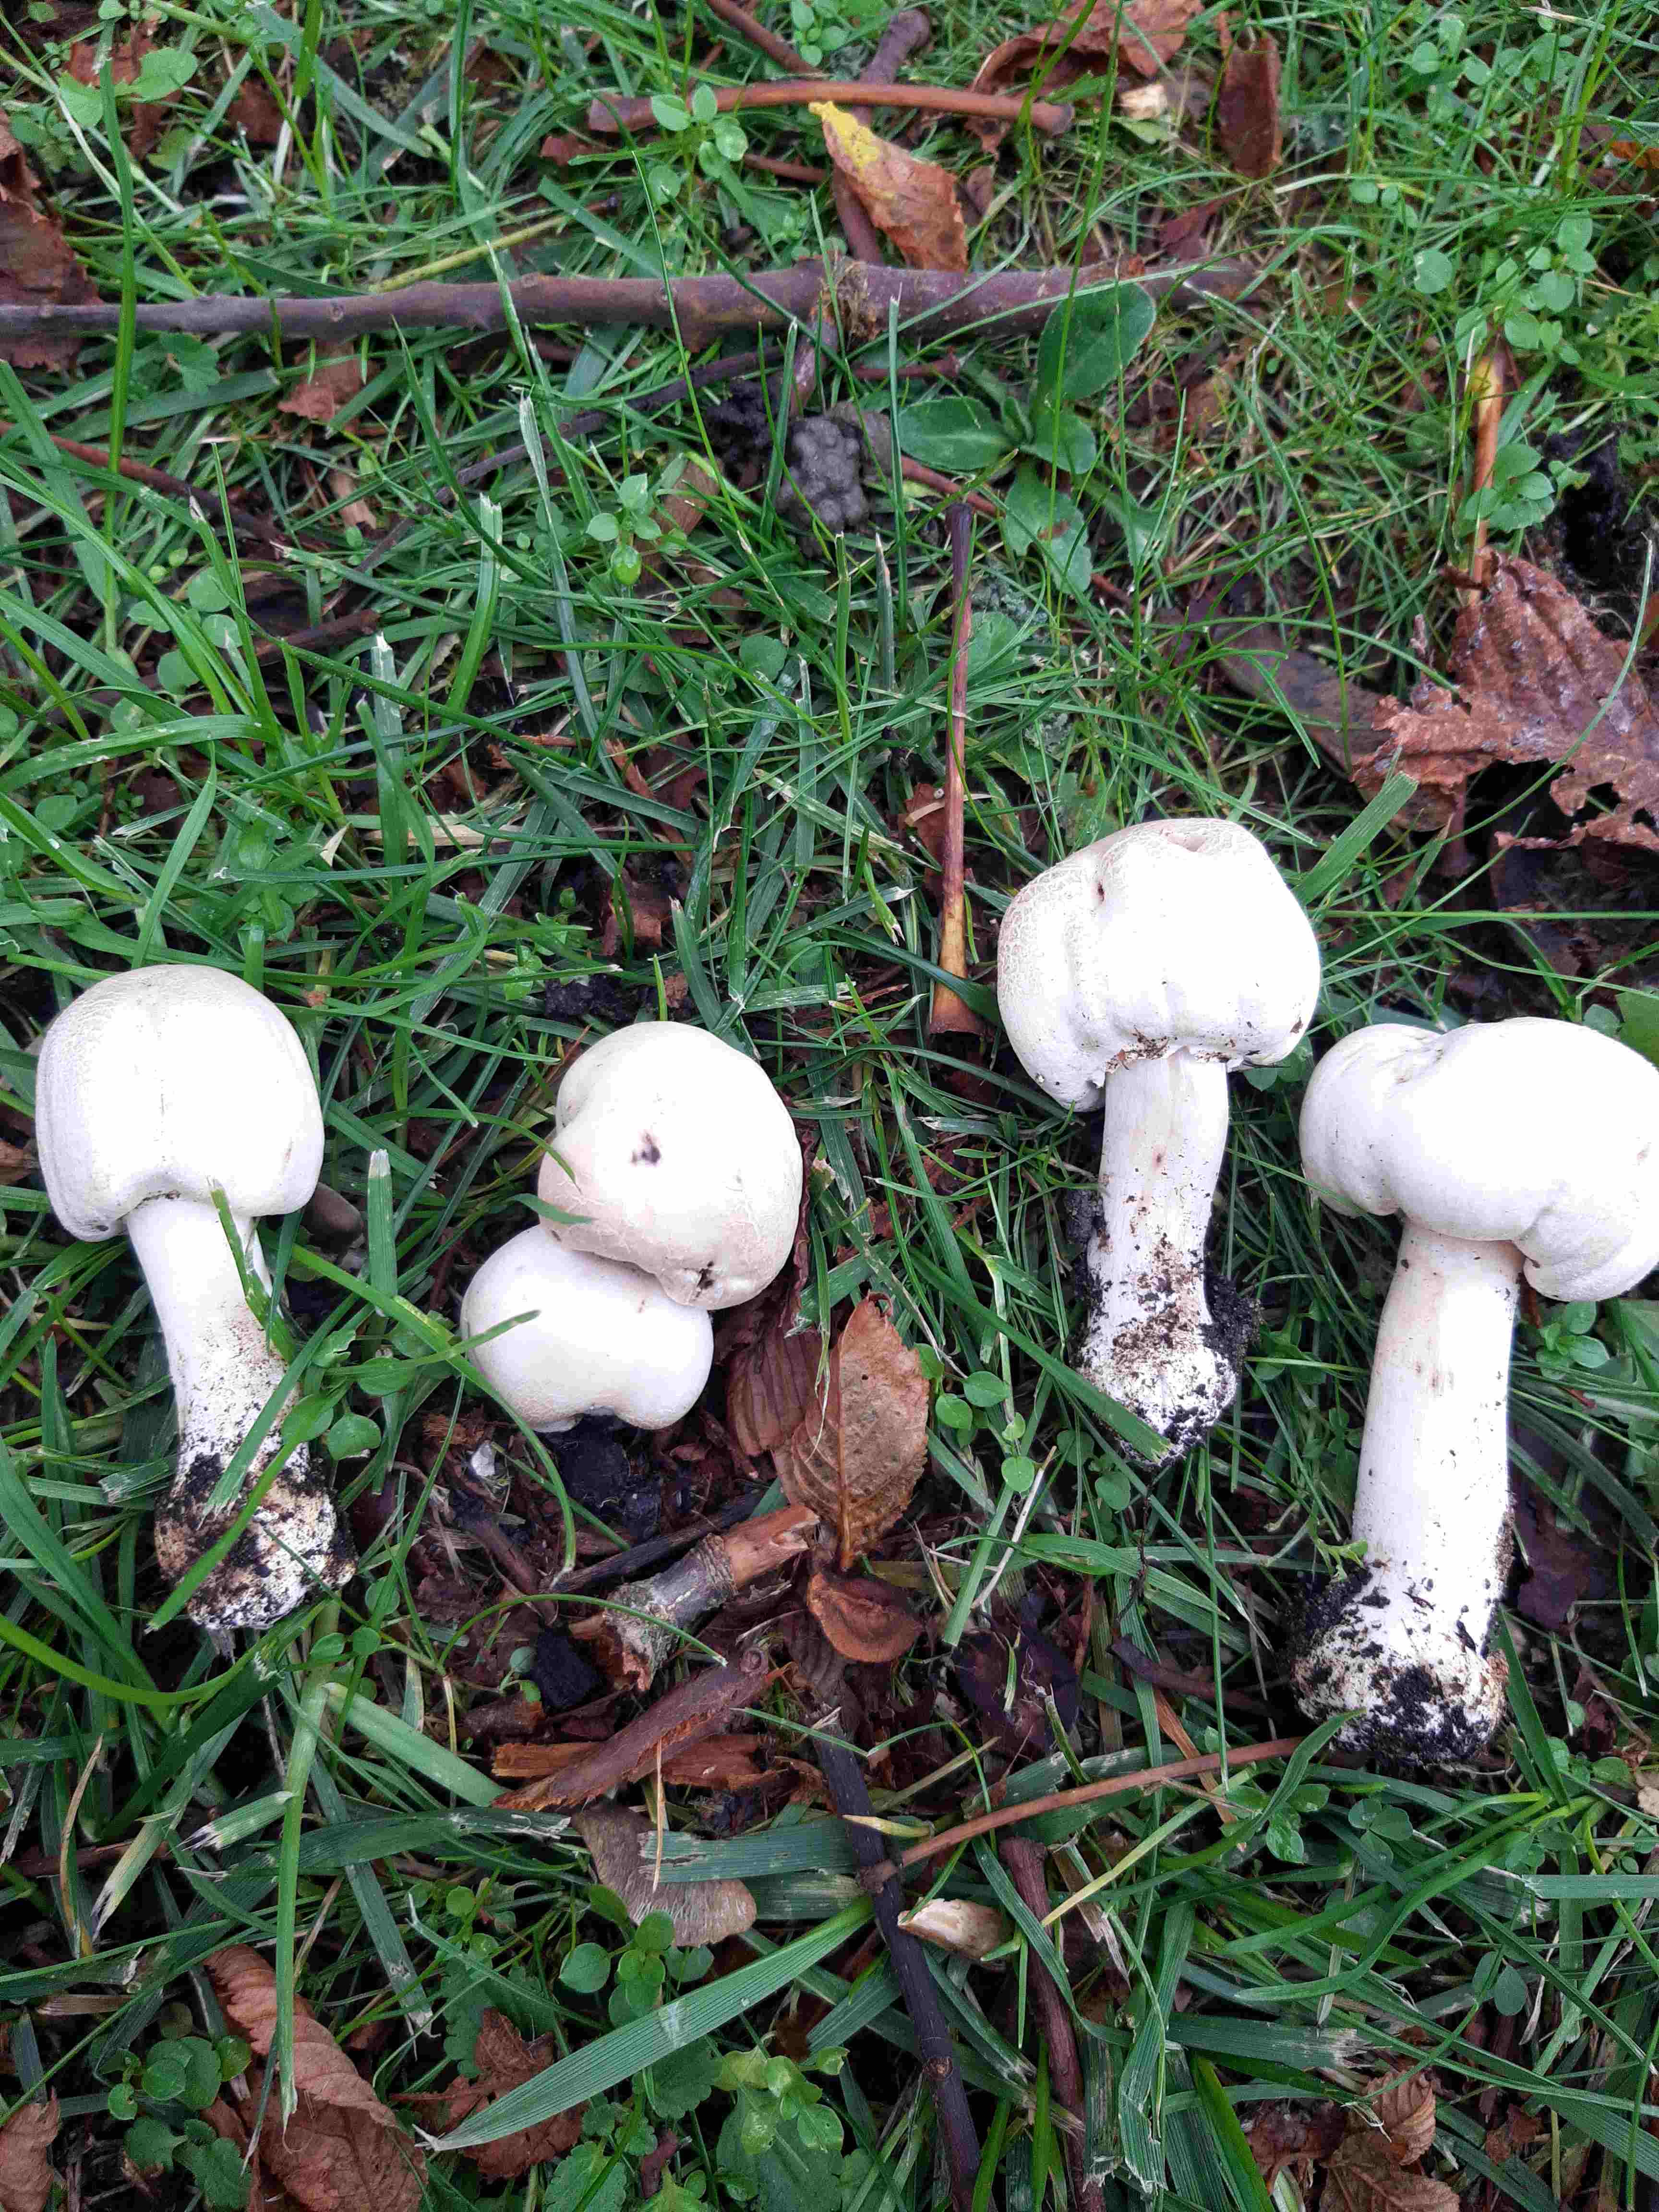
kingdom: Fungi
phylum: Basidiomycota
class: Agaricomycetes
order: Agaricales
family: Agaricaceae
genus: Agaricus
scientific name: Agaricus xanthodermus
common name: karbol-champignon
